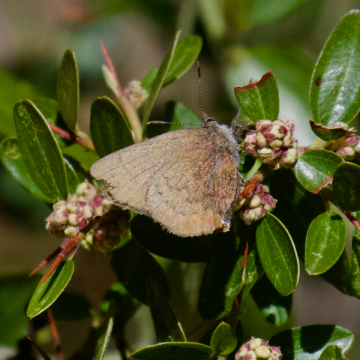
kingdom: Animalia
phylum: Arthropoda
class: Insecta
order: Lepidoptera
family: Lycaenidae
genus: Incisalia
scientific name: Incisalia irioides
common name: Brown Elfin
